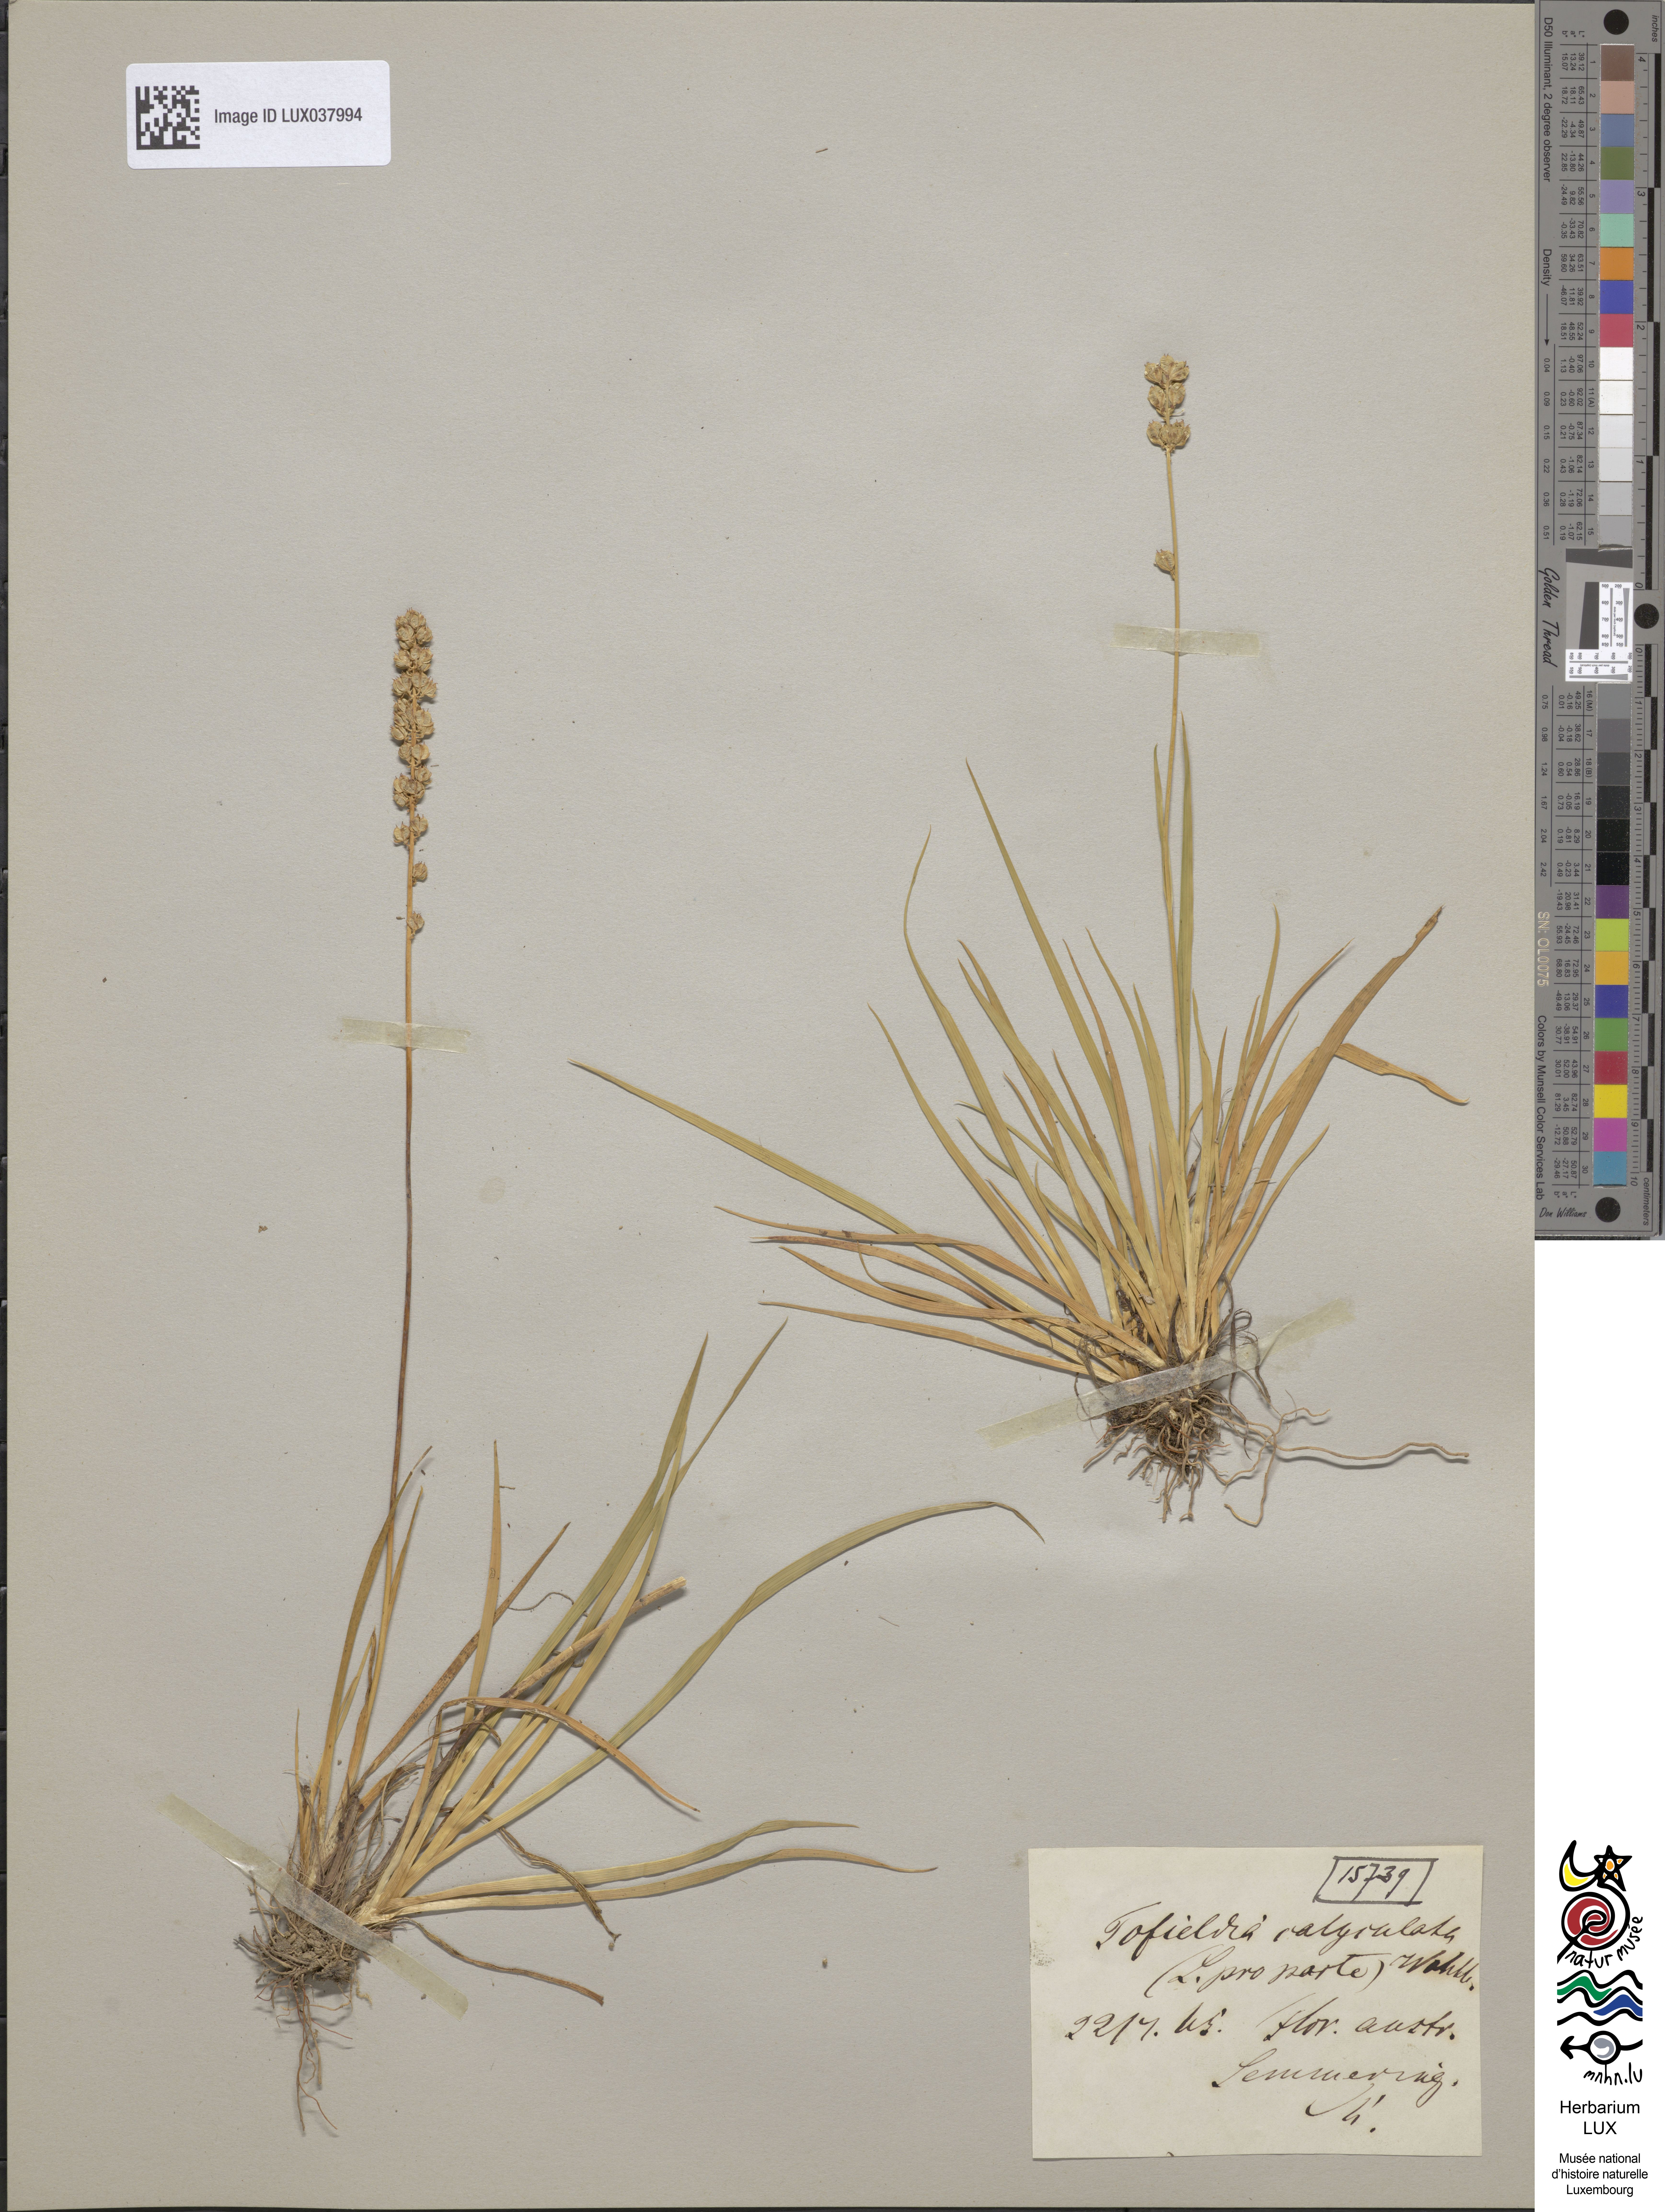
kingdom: Plantae
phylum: Tracheophyta
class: Liliopsida
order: Alismatales
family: Tofieldiaceae
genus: Tofieldia
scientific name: Tofieldia calyculata
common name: German-asphodel
